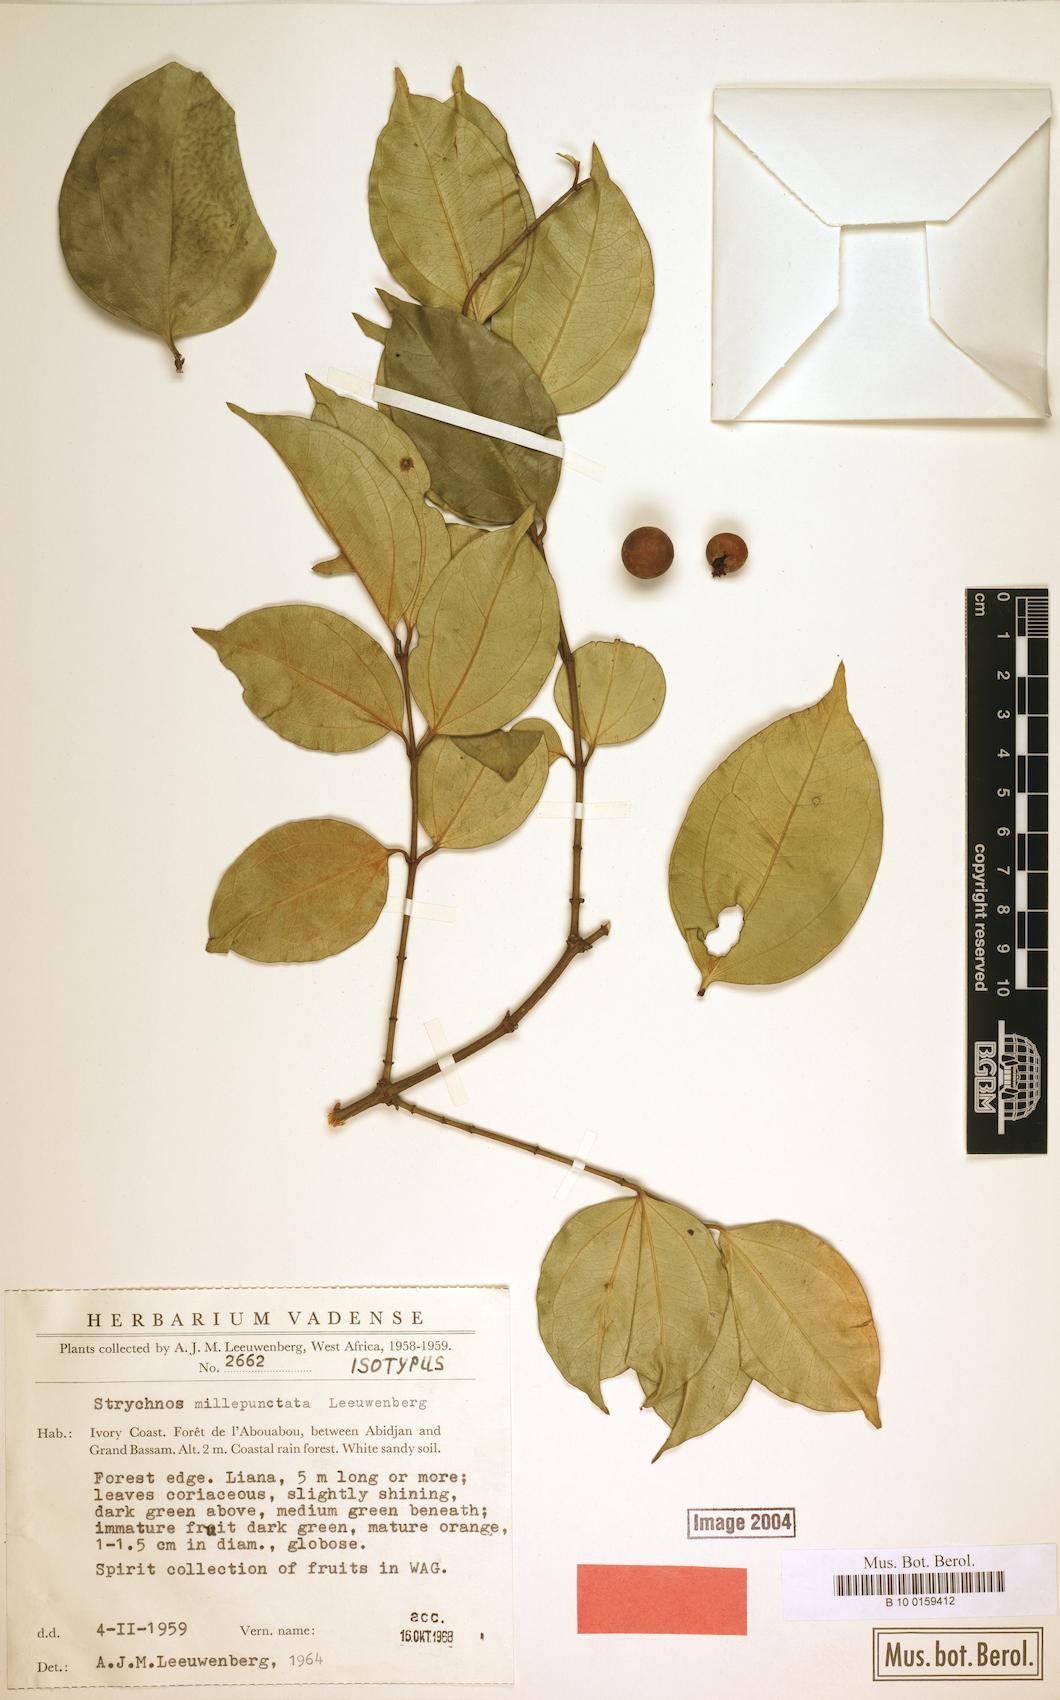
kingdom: Plantae
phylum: Tracheophyta
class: Magnoliopsida
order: Gentianales
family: Loganiaceae
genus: Strychnos
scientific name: Strychnos millepunctata
